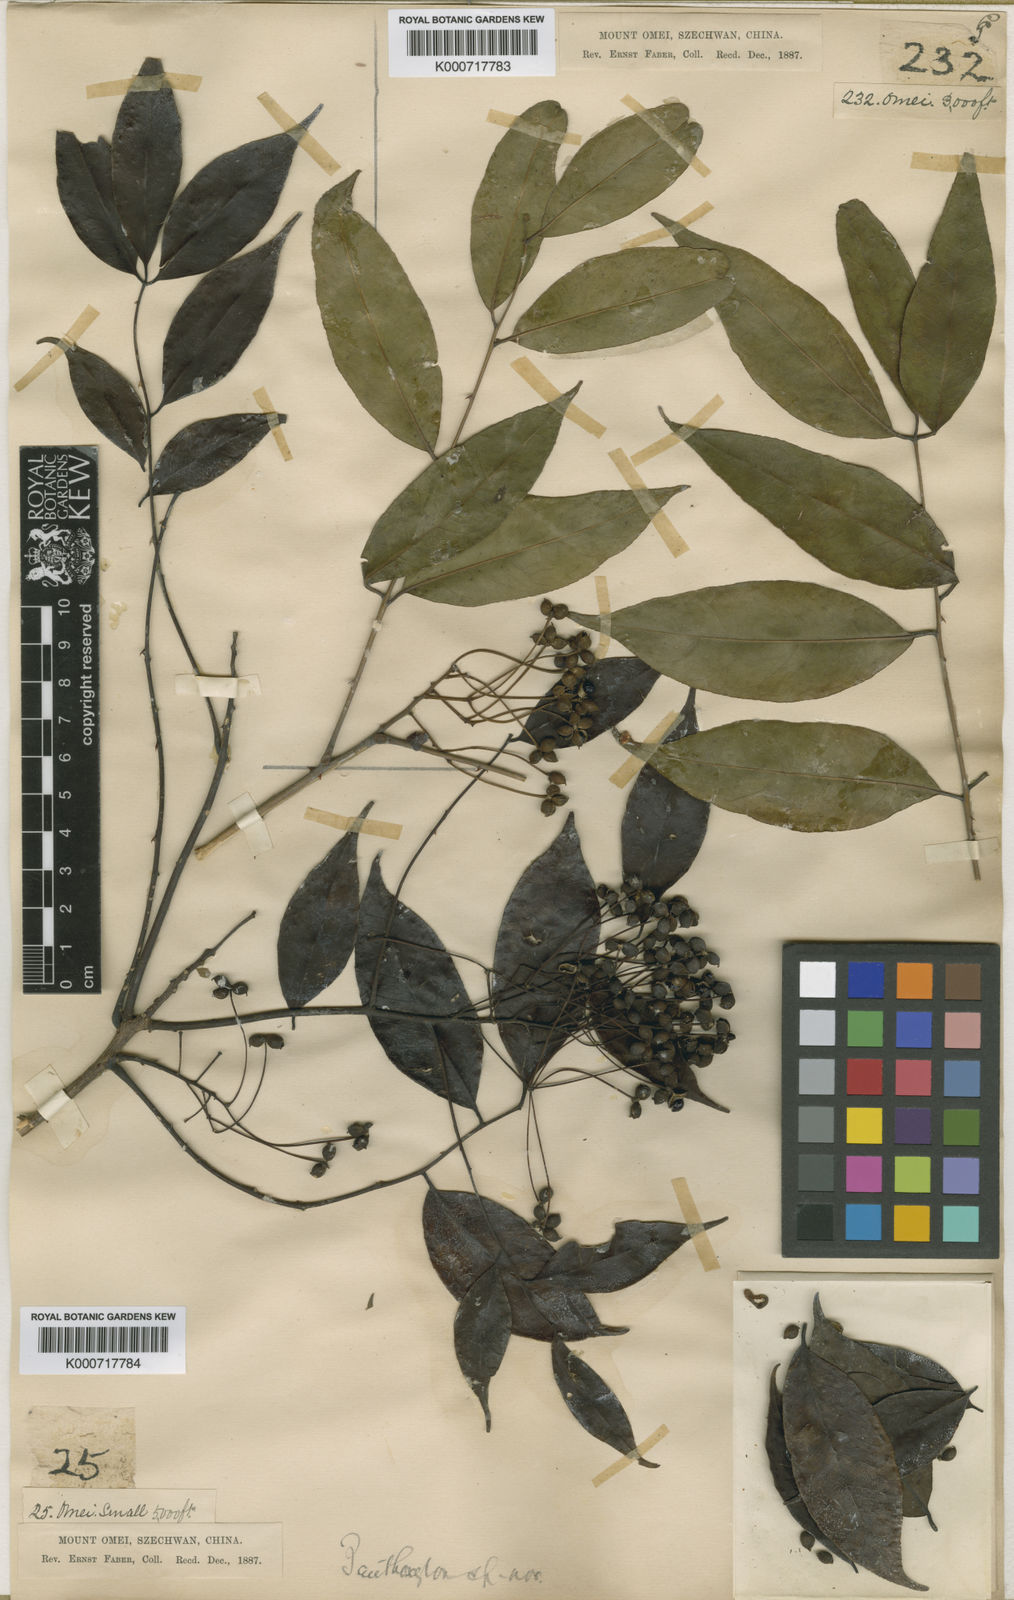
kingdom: Plantae
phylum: Tracheophyta
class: Magnoliopsida
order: Sapindales
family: Rutaceae
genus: Zanthoxylum
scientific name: Zanthoxylum stenophyllum
